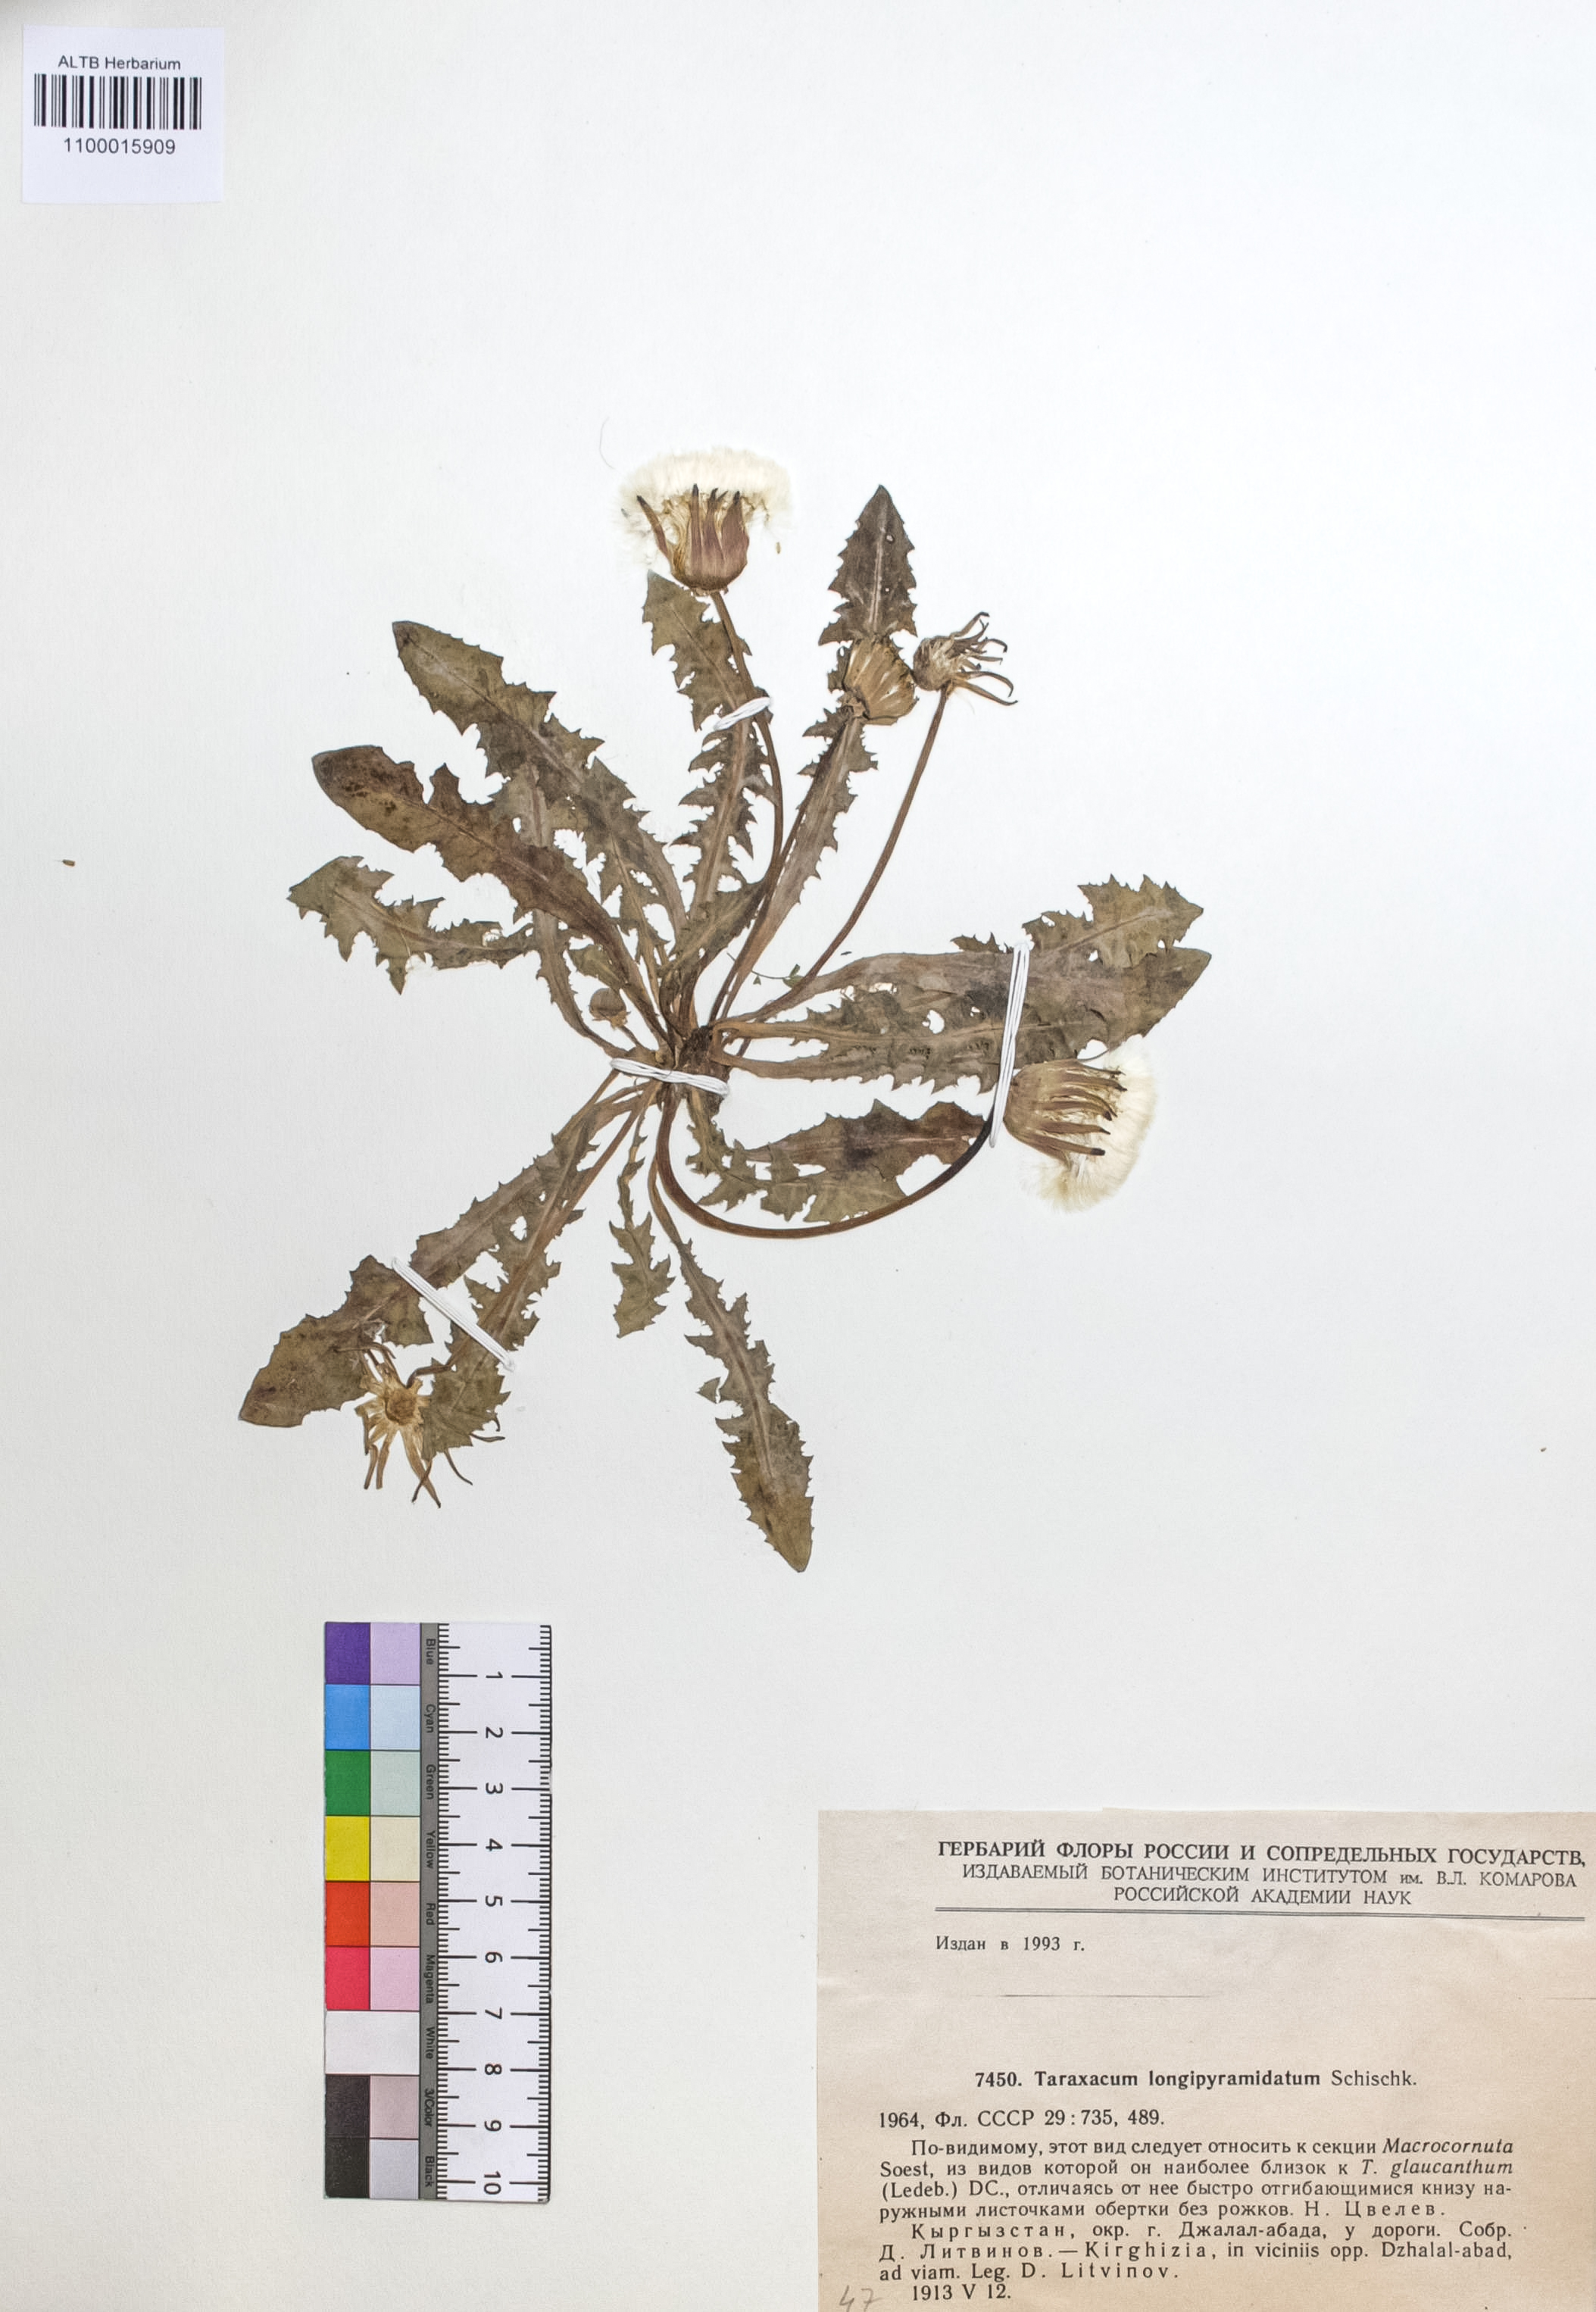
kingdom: Plantae
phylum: Tracheophyta
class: Magnoliopsida
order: Asterales
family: Asteraceae
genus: Taraxacum
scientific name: Taraxacum longipyramidatum
